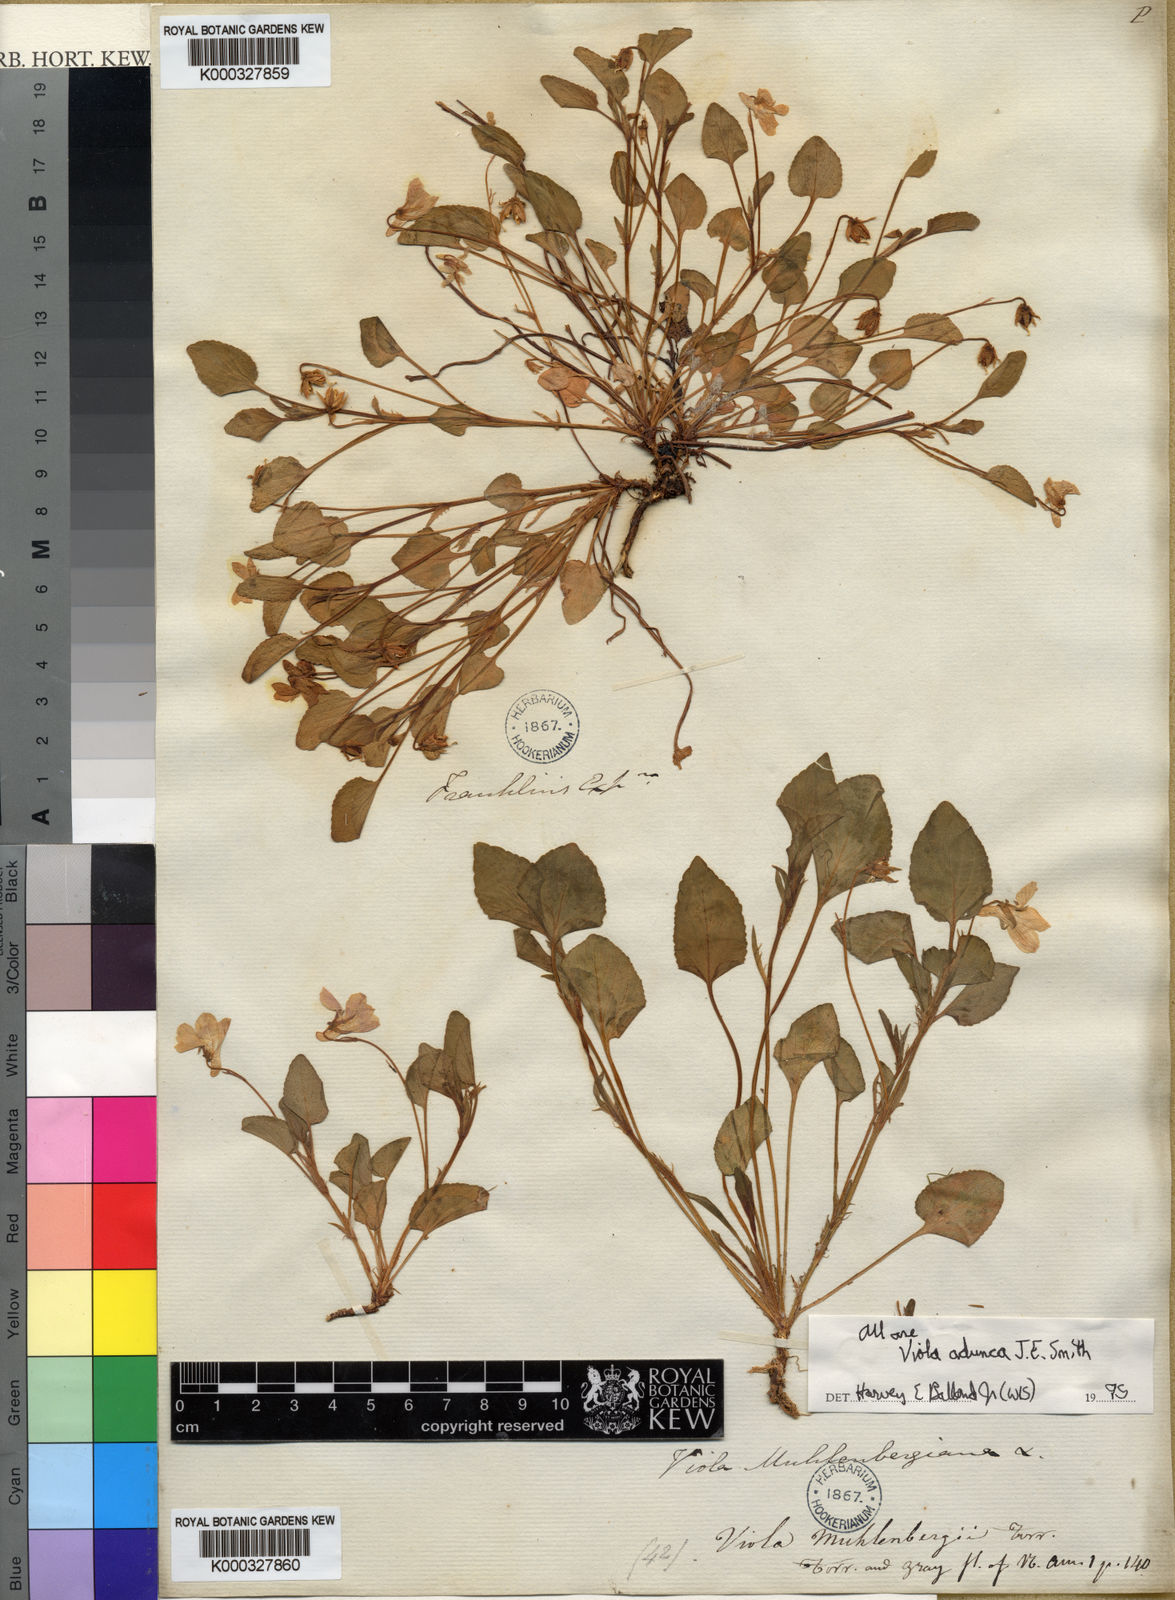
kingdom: Plantae
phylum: Tracheophyta
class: Magnoliopsida
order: Malpighiales
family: Violaceae
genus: Viola
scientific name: Viola adunca
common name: Sand violet
